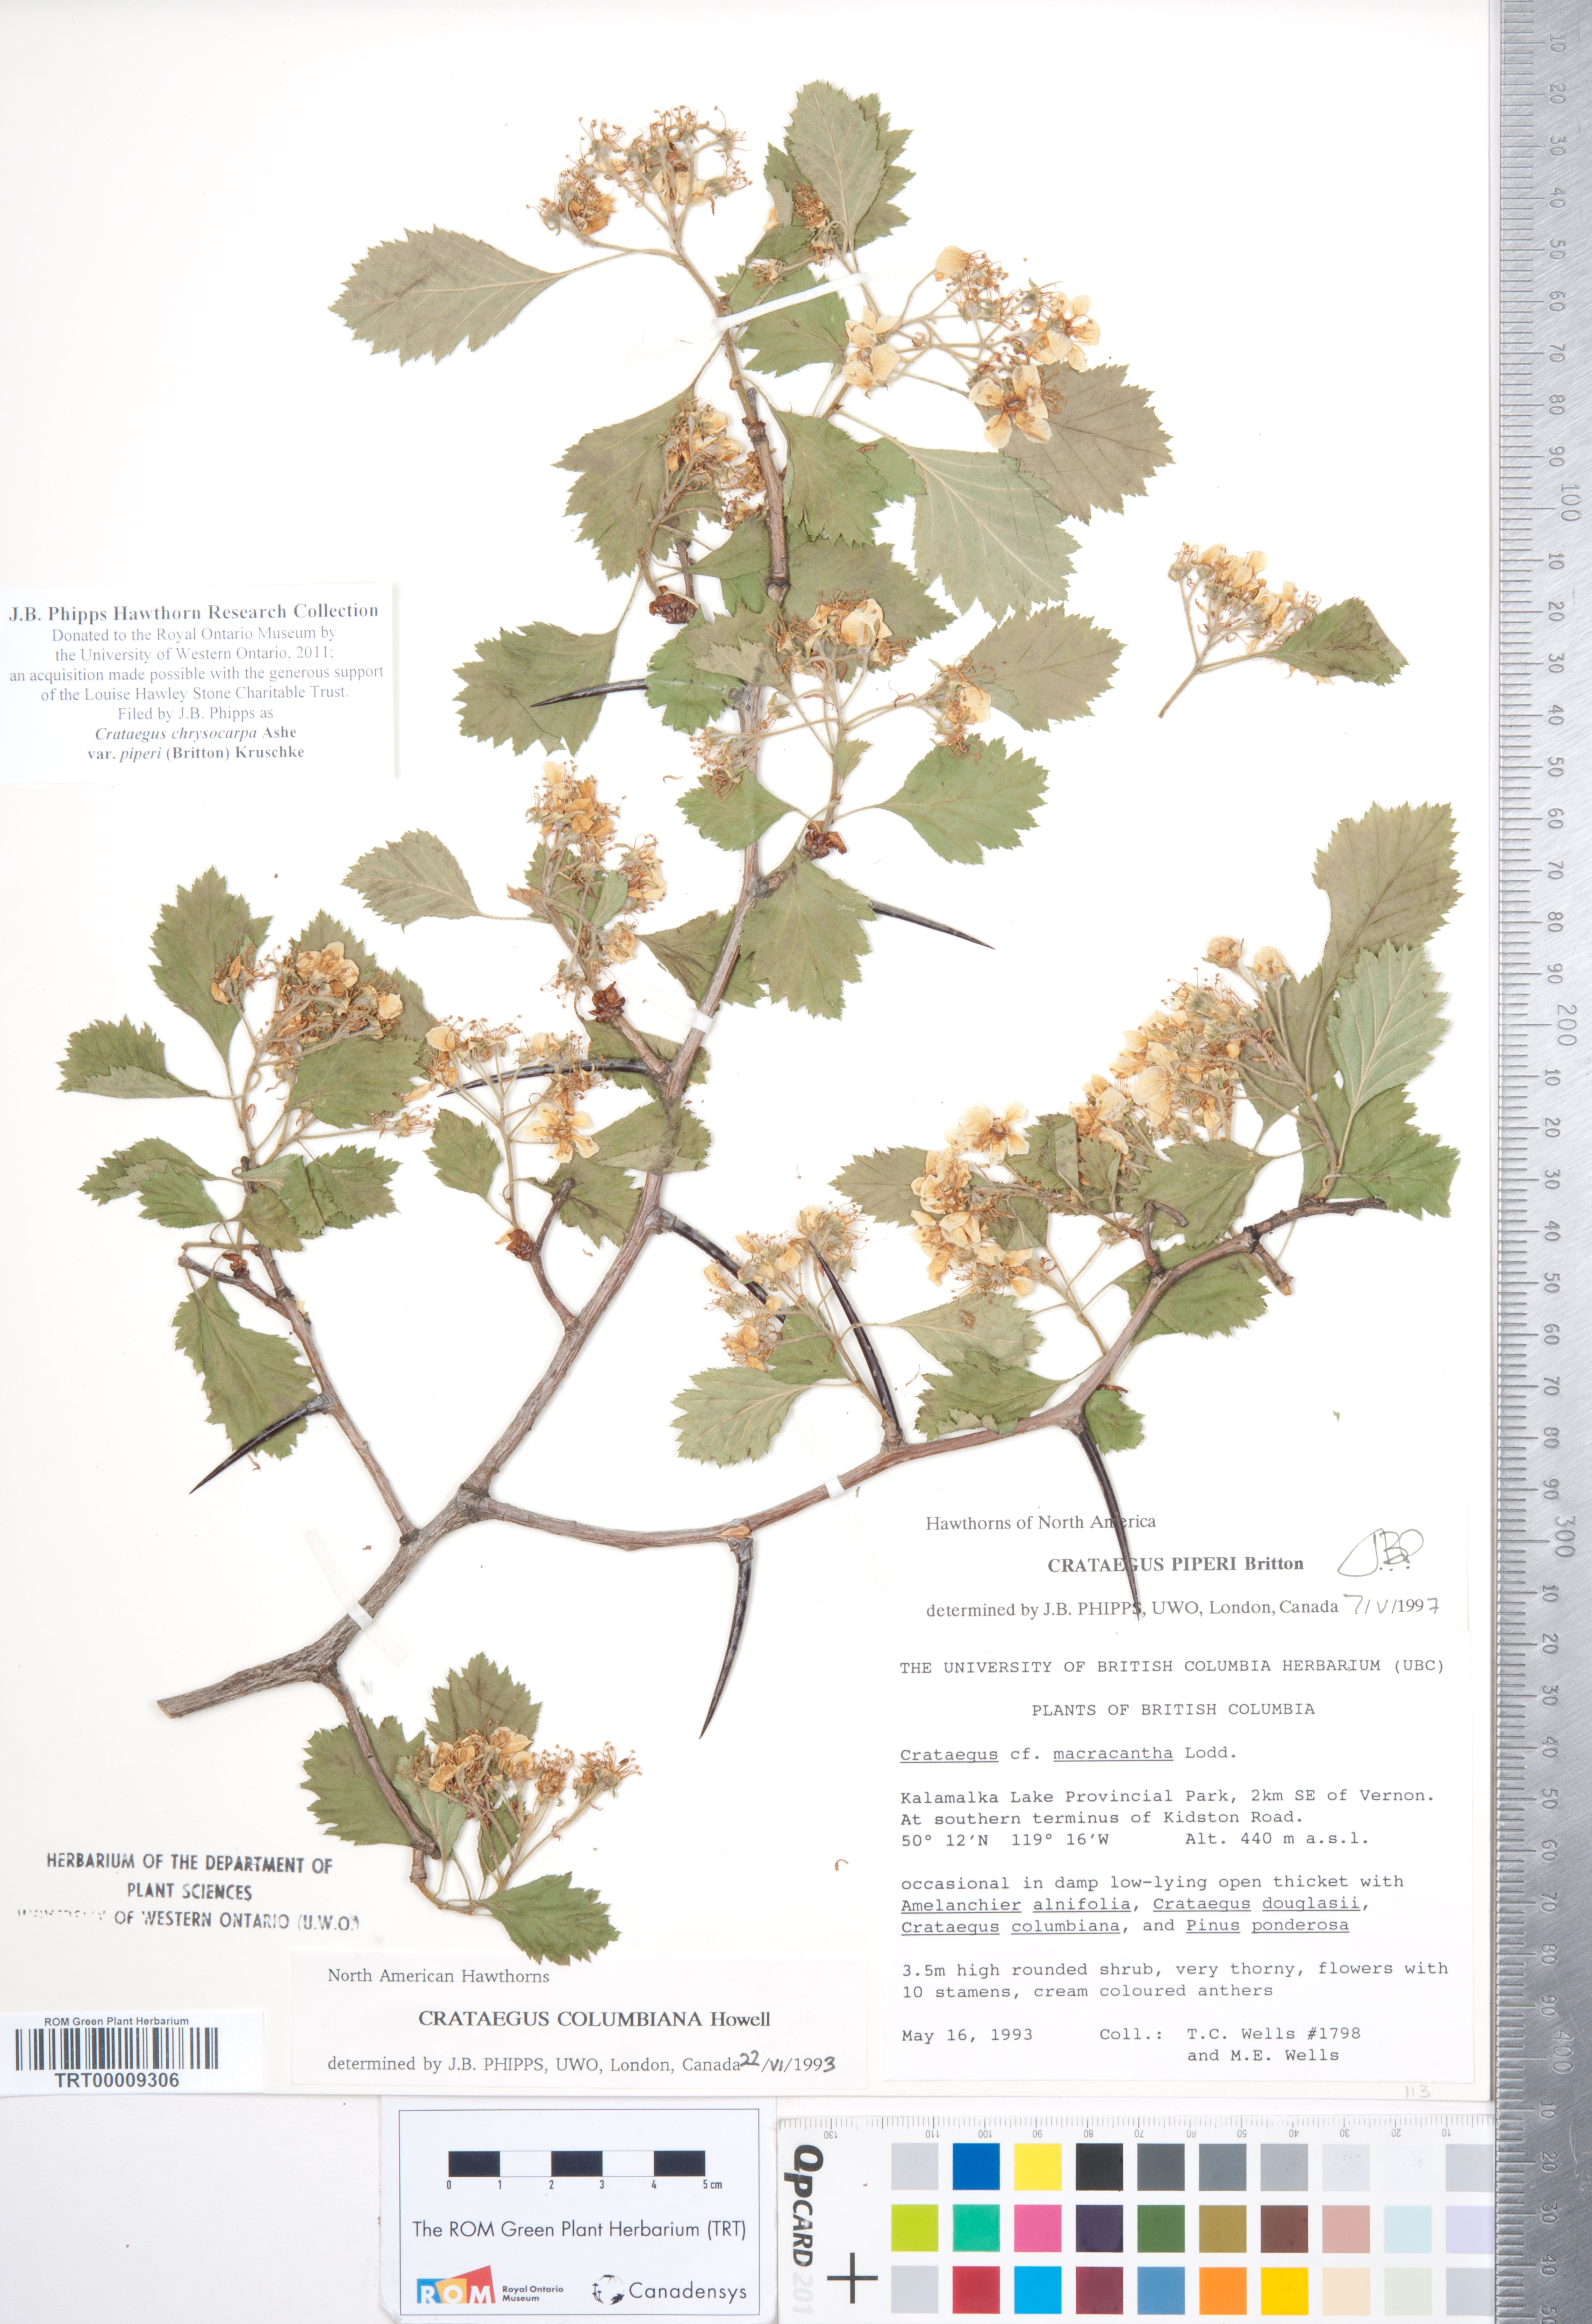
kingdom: Plantae
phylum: Tracheophyta
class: Magnoliopsida
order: Rosales
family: Rosaceae
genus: Crataegus
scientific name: Crataegus piperi
